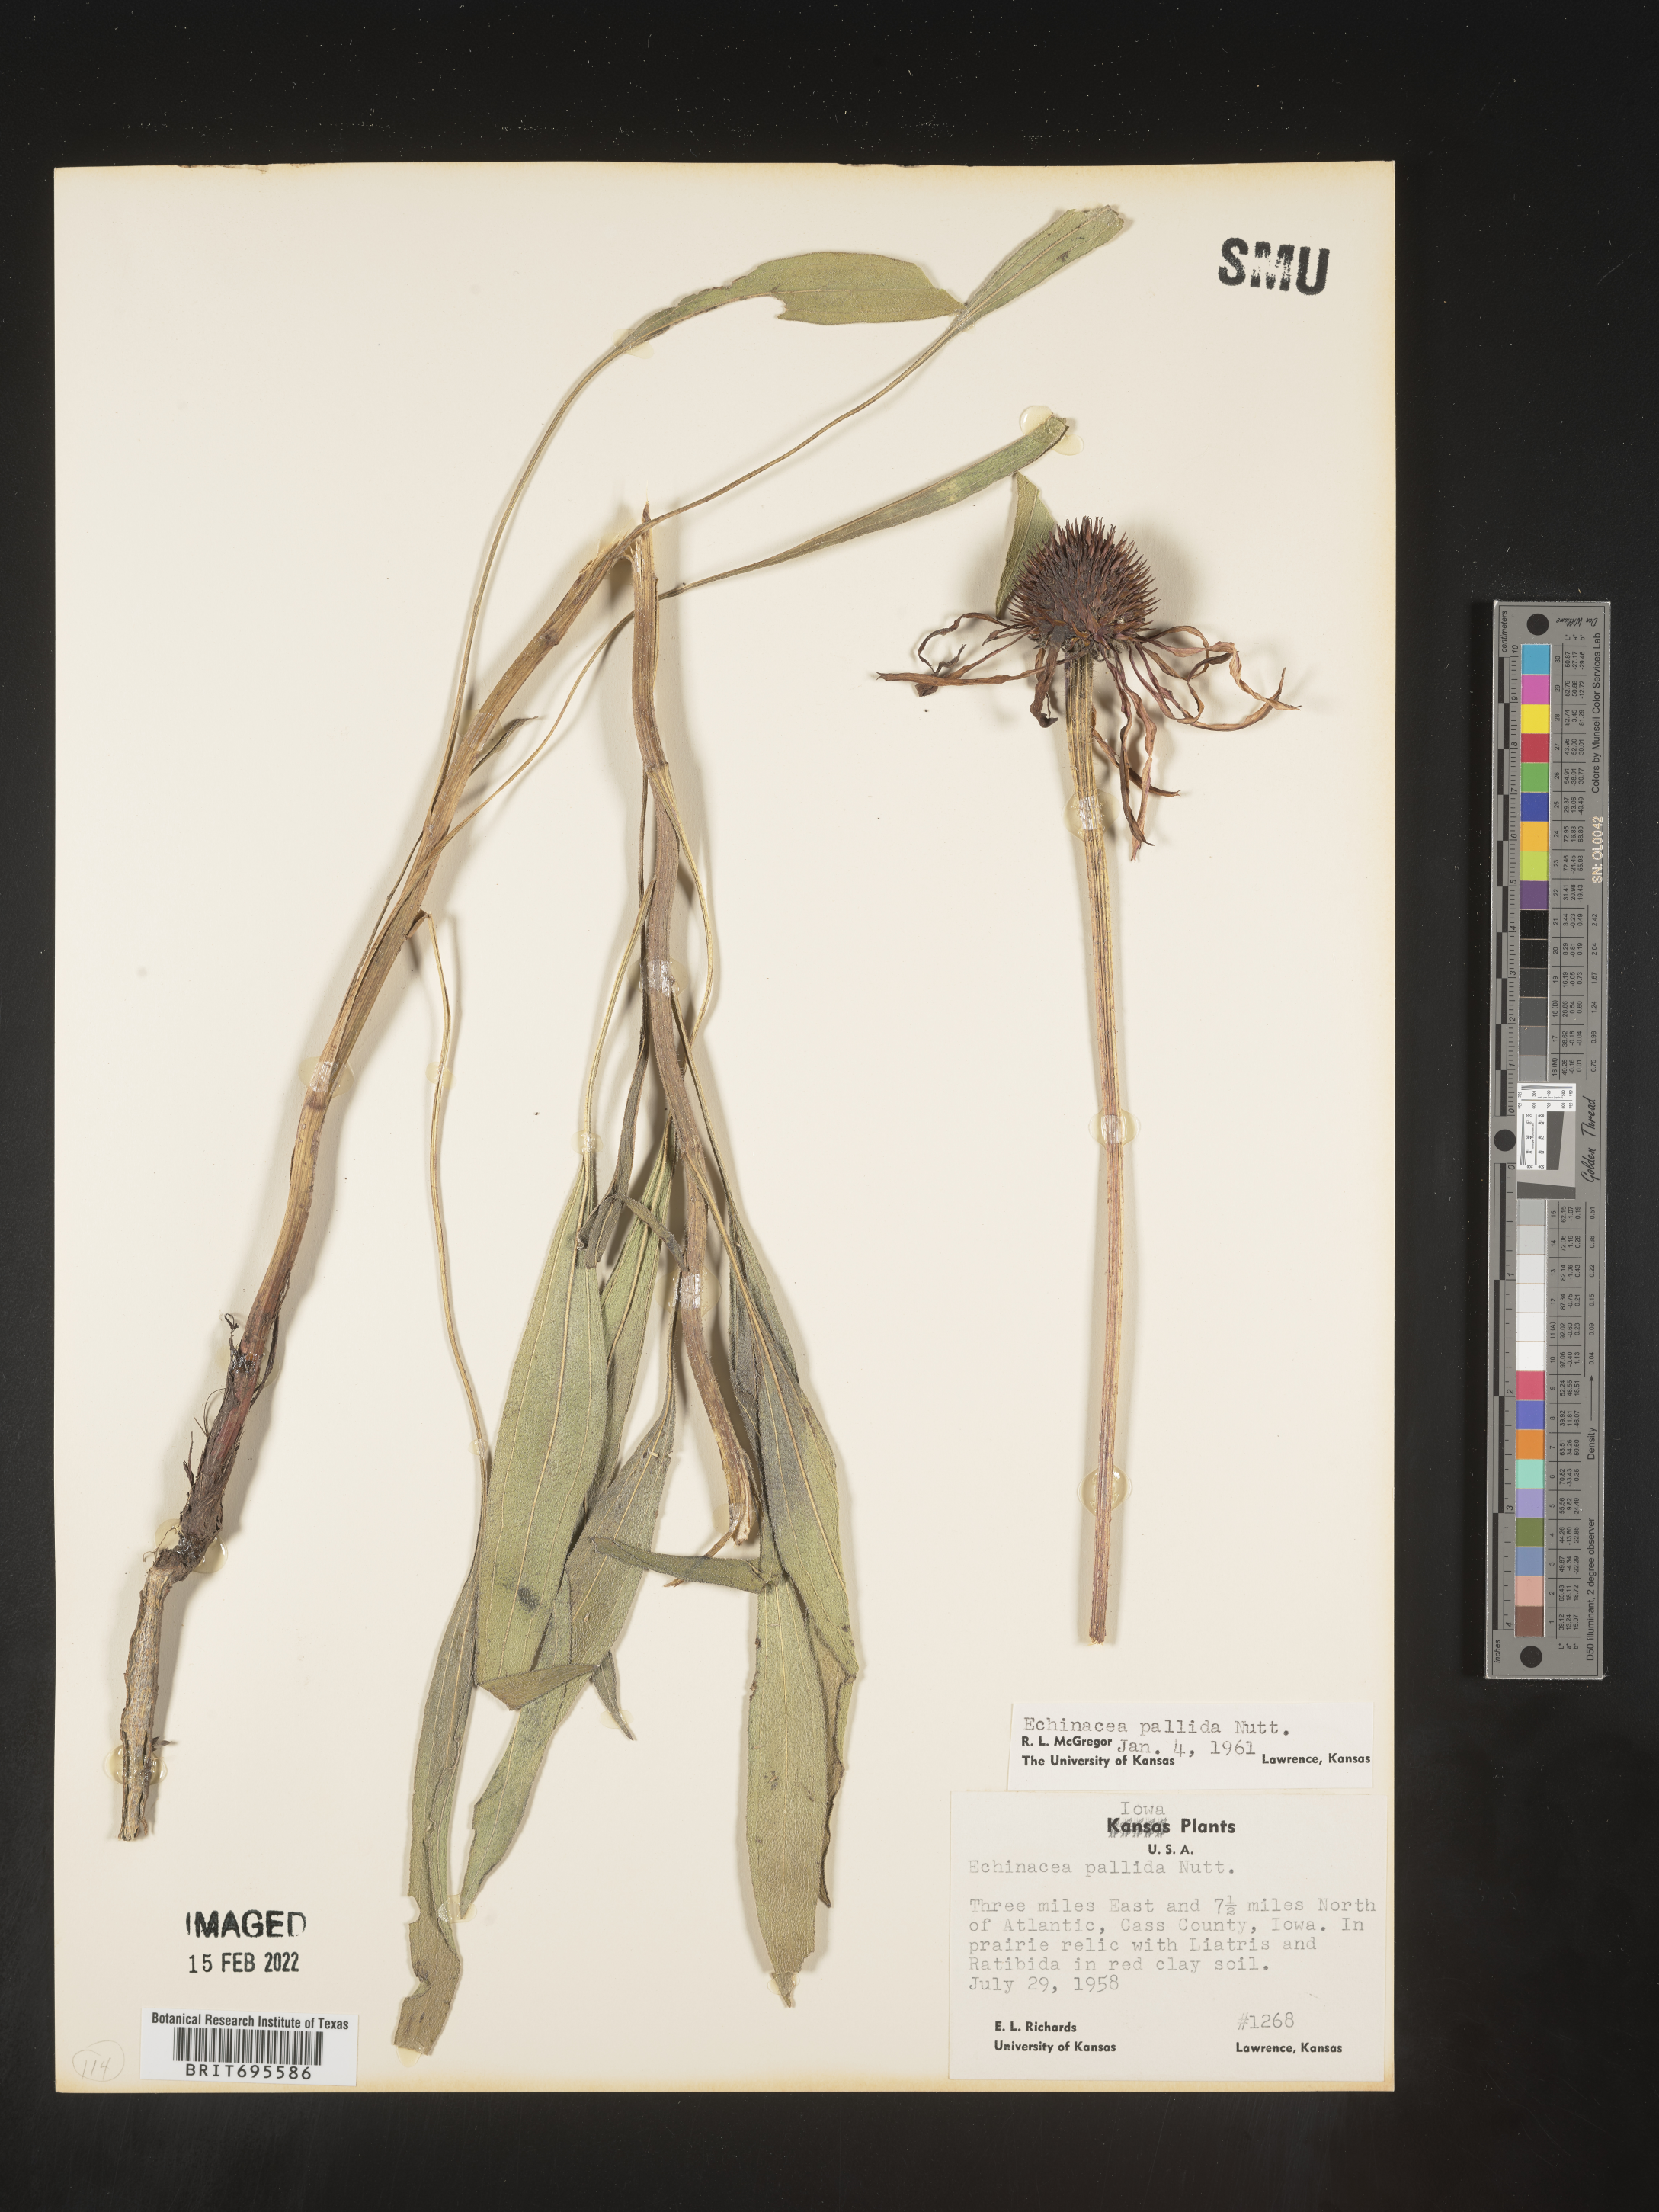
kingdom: Plantae
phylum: Tracheophyta
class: Magnoliopsida
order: Asterales
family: Asteraceae
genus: Echinacea
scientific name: Echinacea pallida
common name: Pale echinacea
